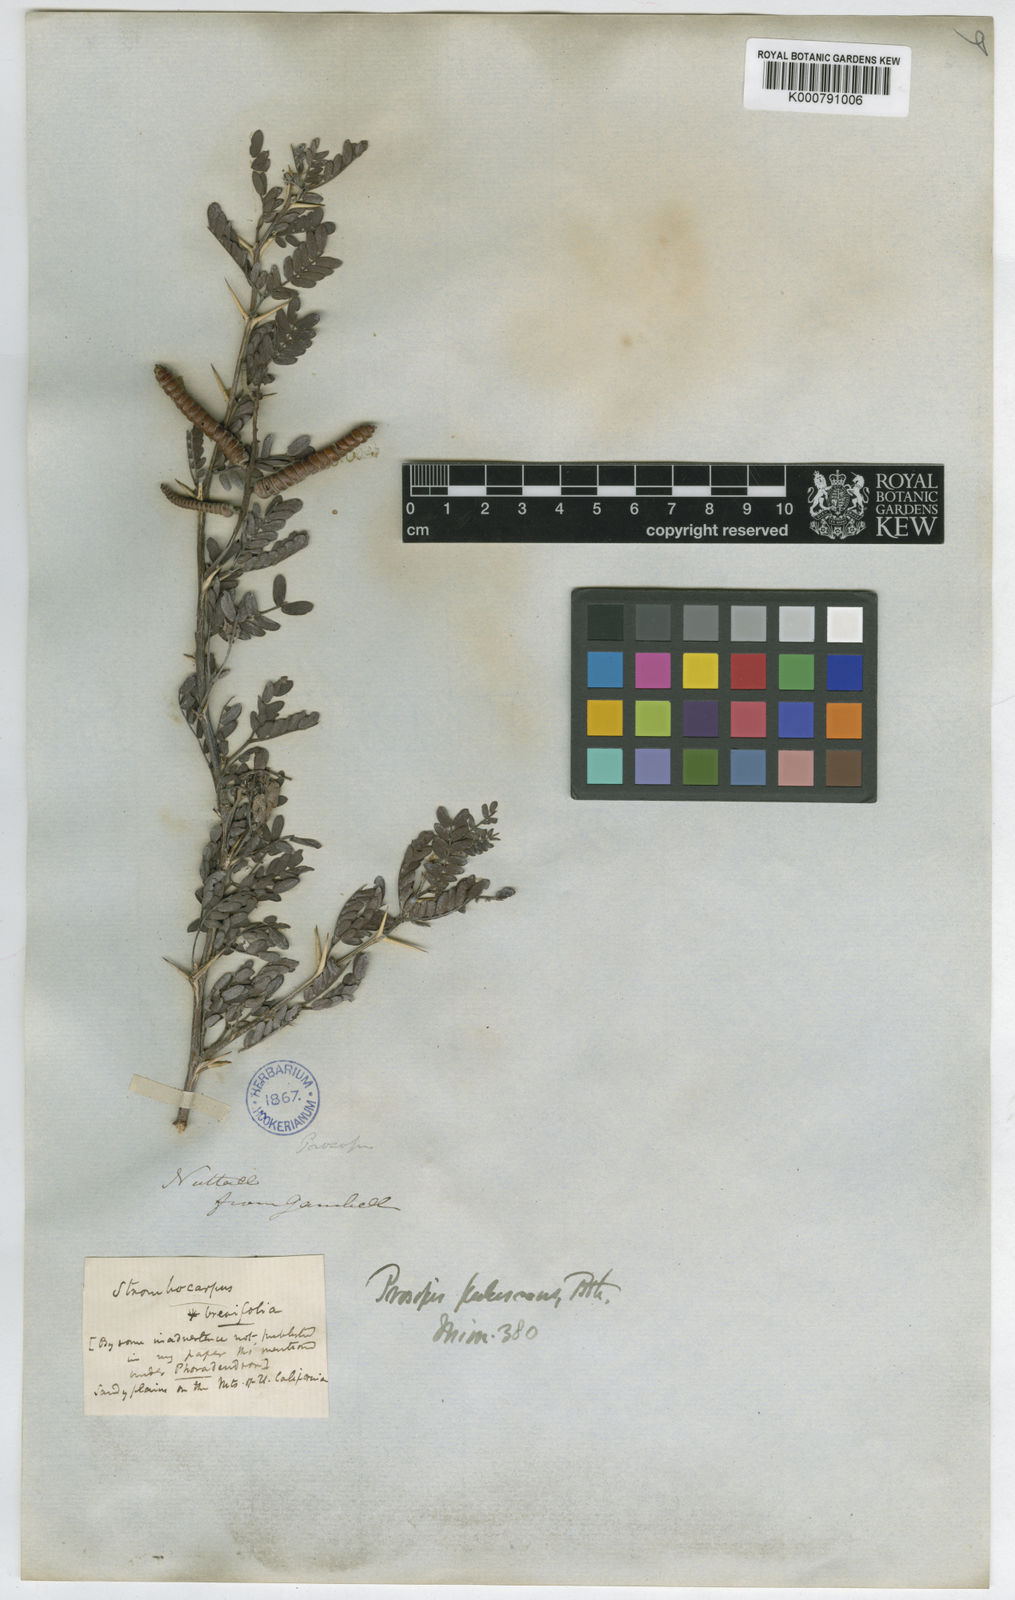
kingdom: Plantae
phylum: Tracheophyta
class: Magnoliopsida
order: Fabales
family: Fabaceae
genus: Prosopis
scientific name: Prosopis
